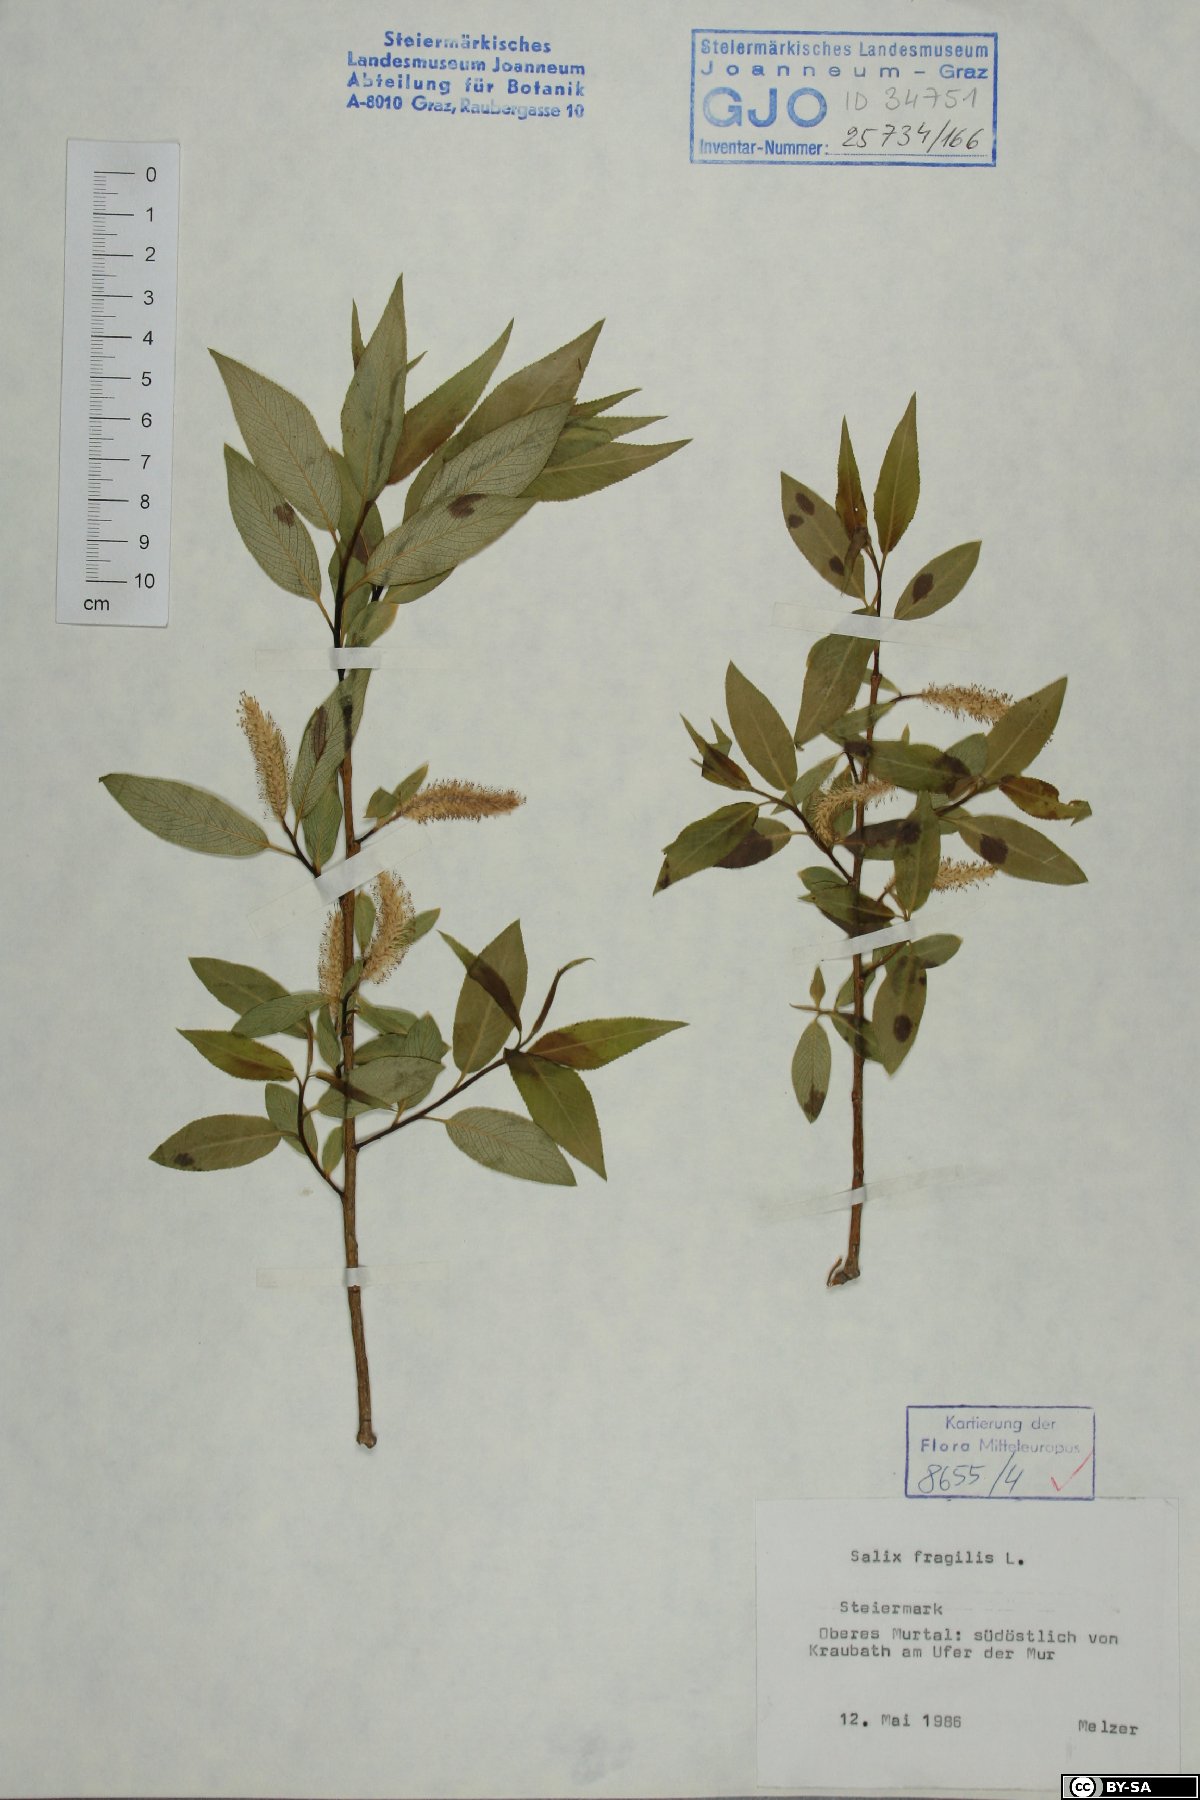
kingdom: Plantae
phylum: Tracheophyta
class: Magnoliopsida
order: Malpighiales
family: Salicaceae
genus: Salix
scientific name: Salix fragilis
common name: Crack willow
